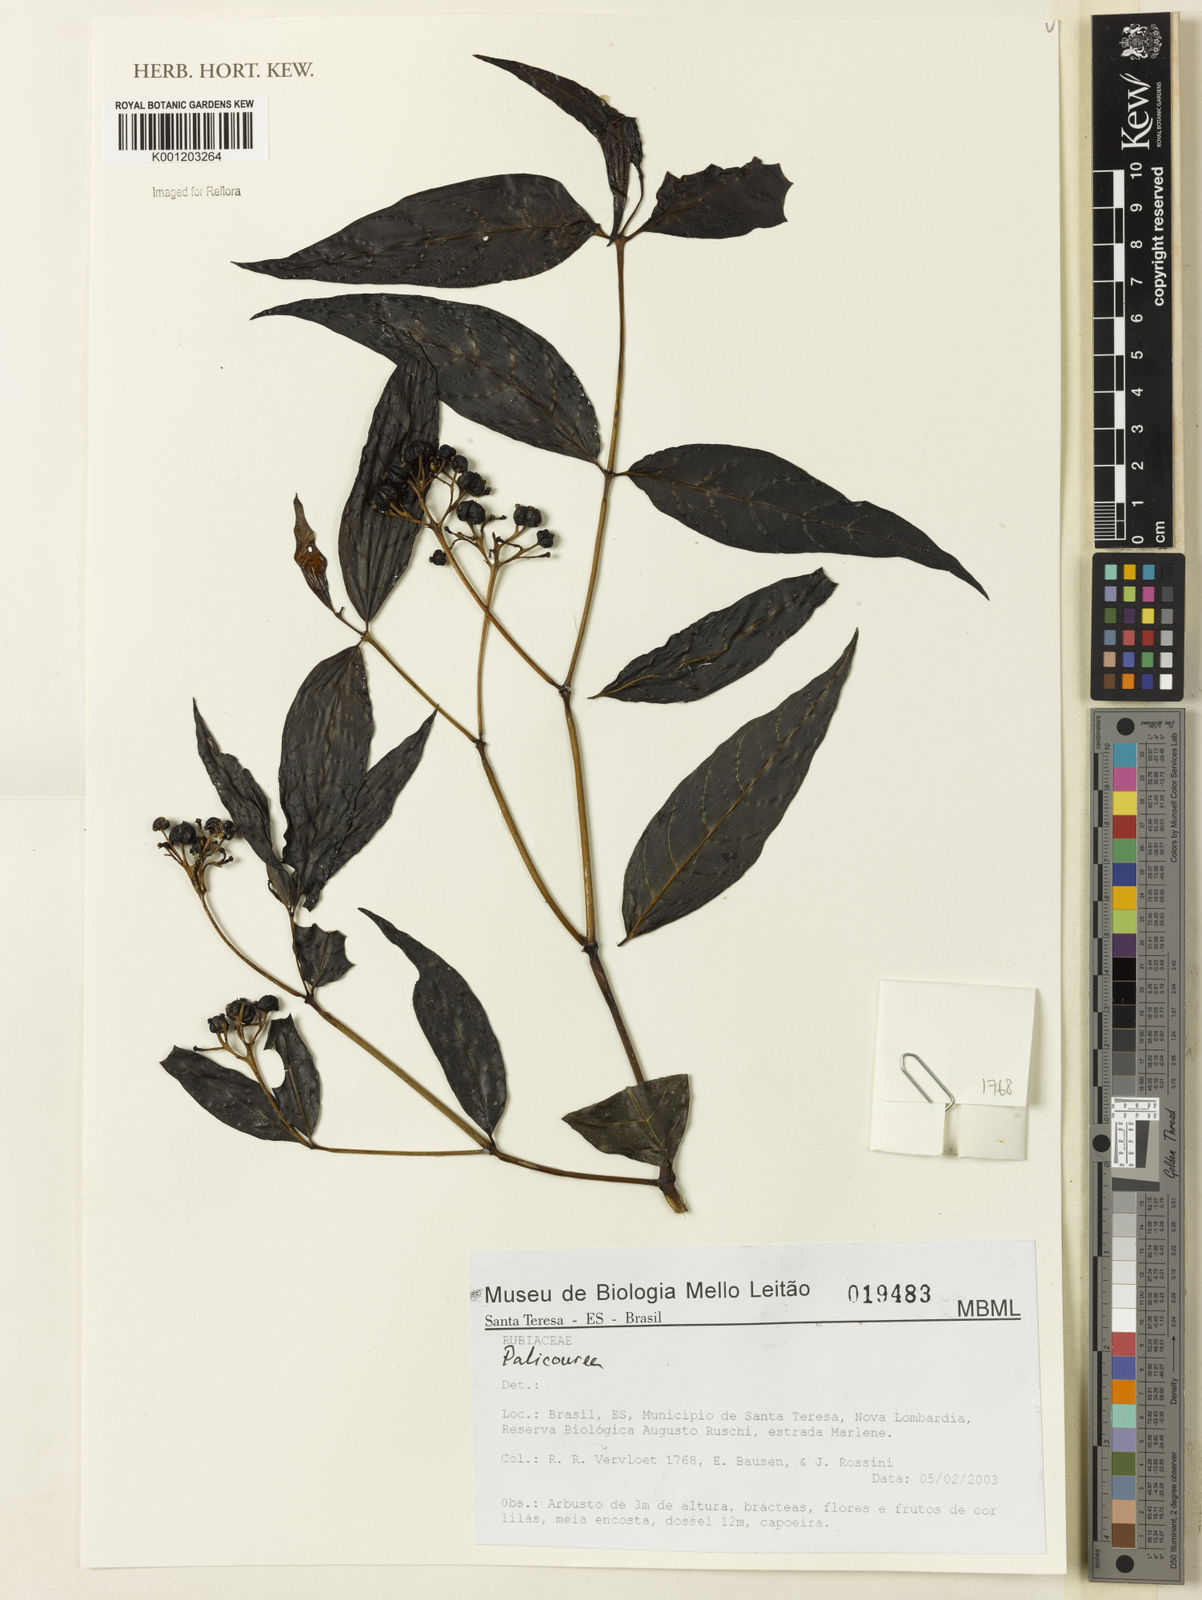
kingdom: Plantae
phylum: Tracheophyta
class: Magnoliopsida
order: Gentianales
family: Rubiaceae
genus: Palicourea
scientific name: Palicourea
